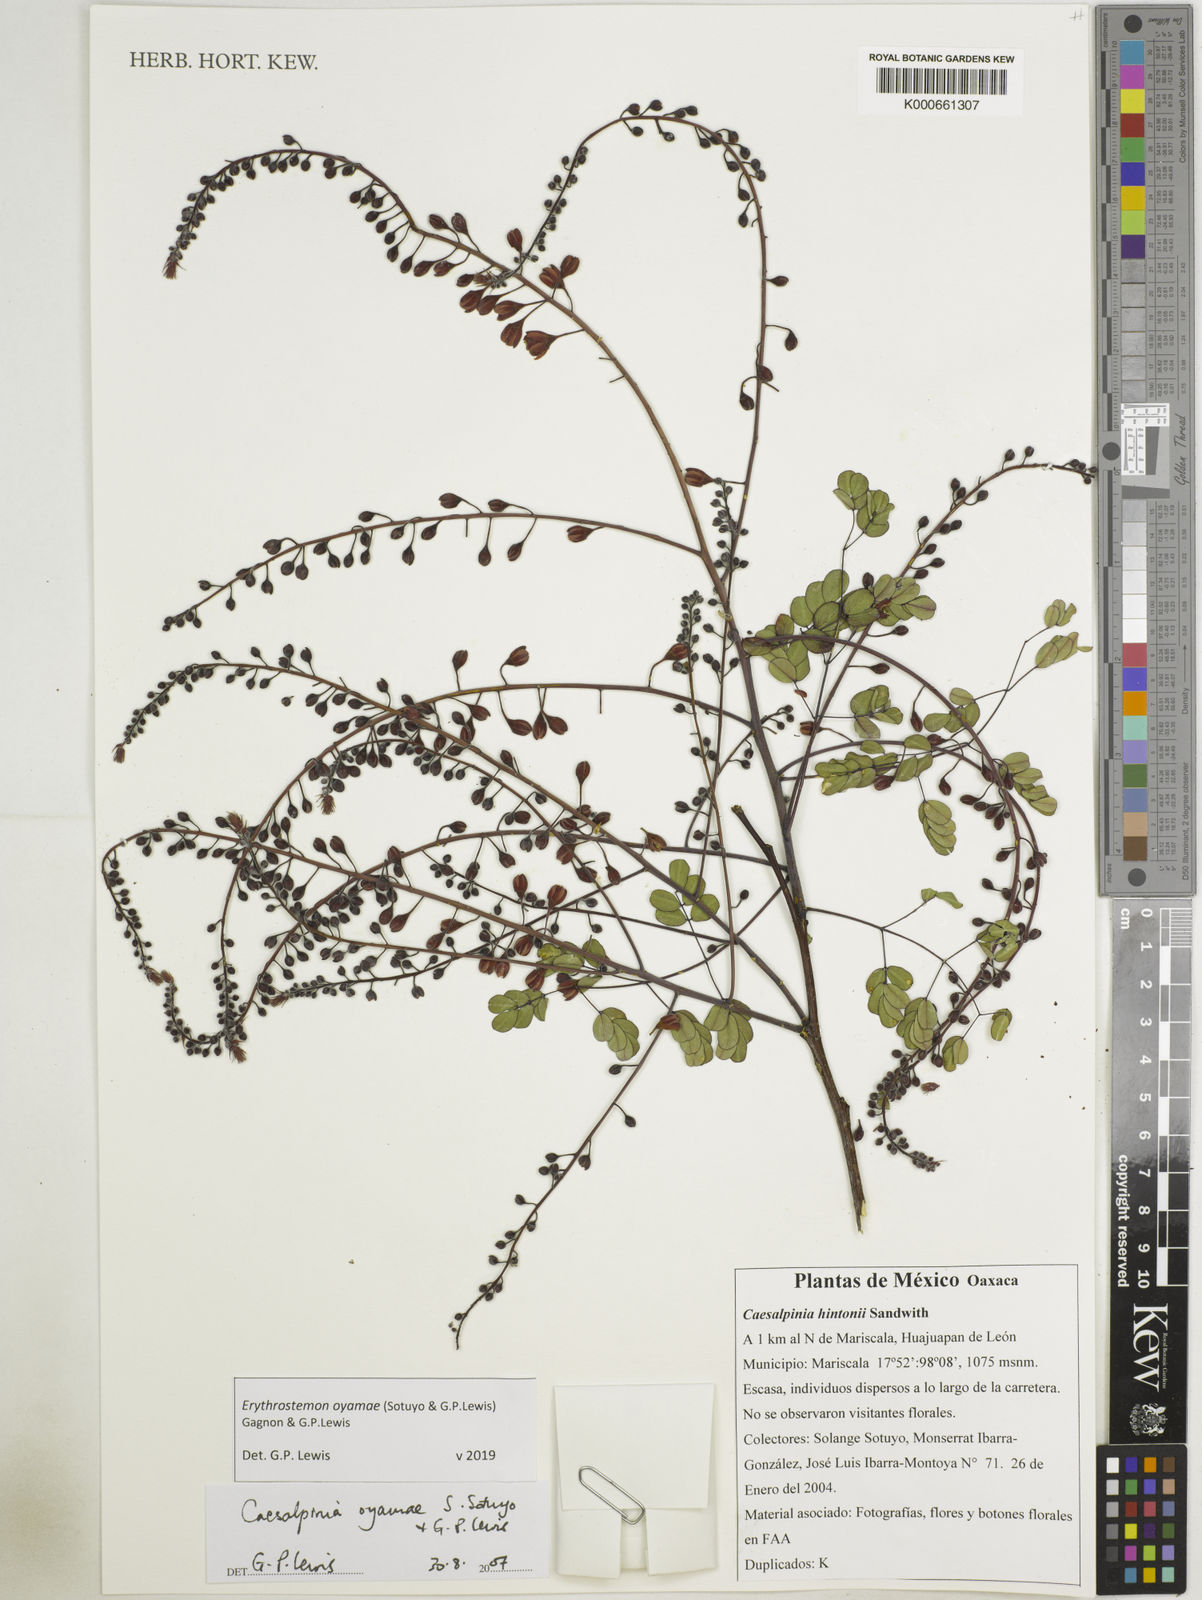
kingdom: Plantae
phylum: Tracheophyta
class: Magnoliopsida
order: Fabales
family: Fabaceae
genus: Erythrostemon
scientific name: Erythrostemon oyamae
